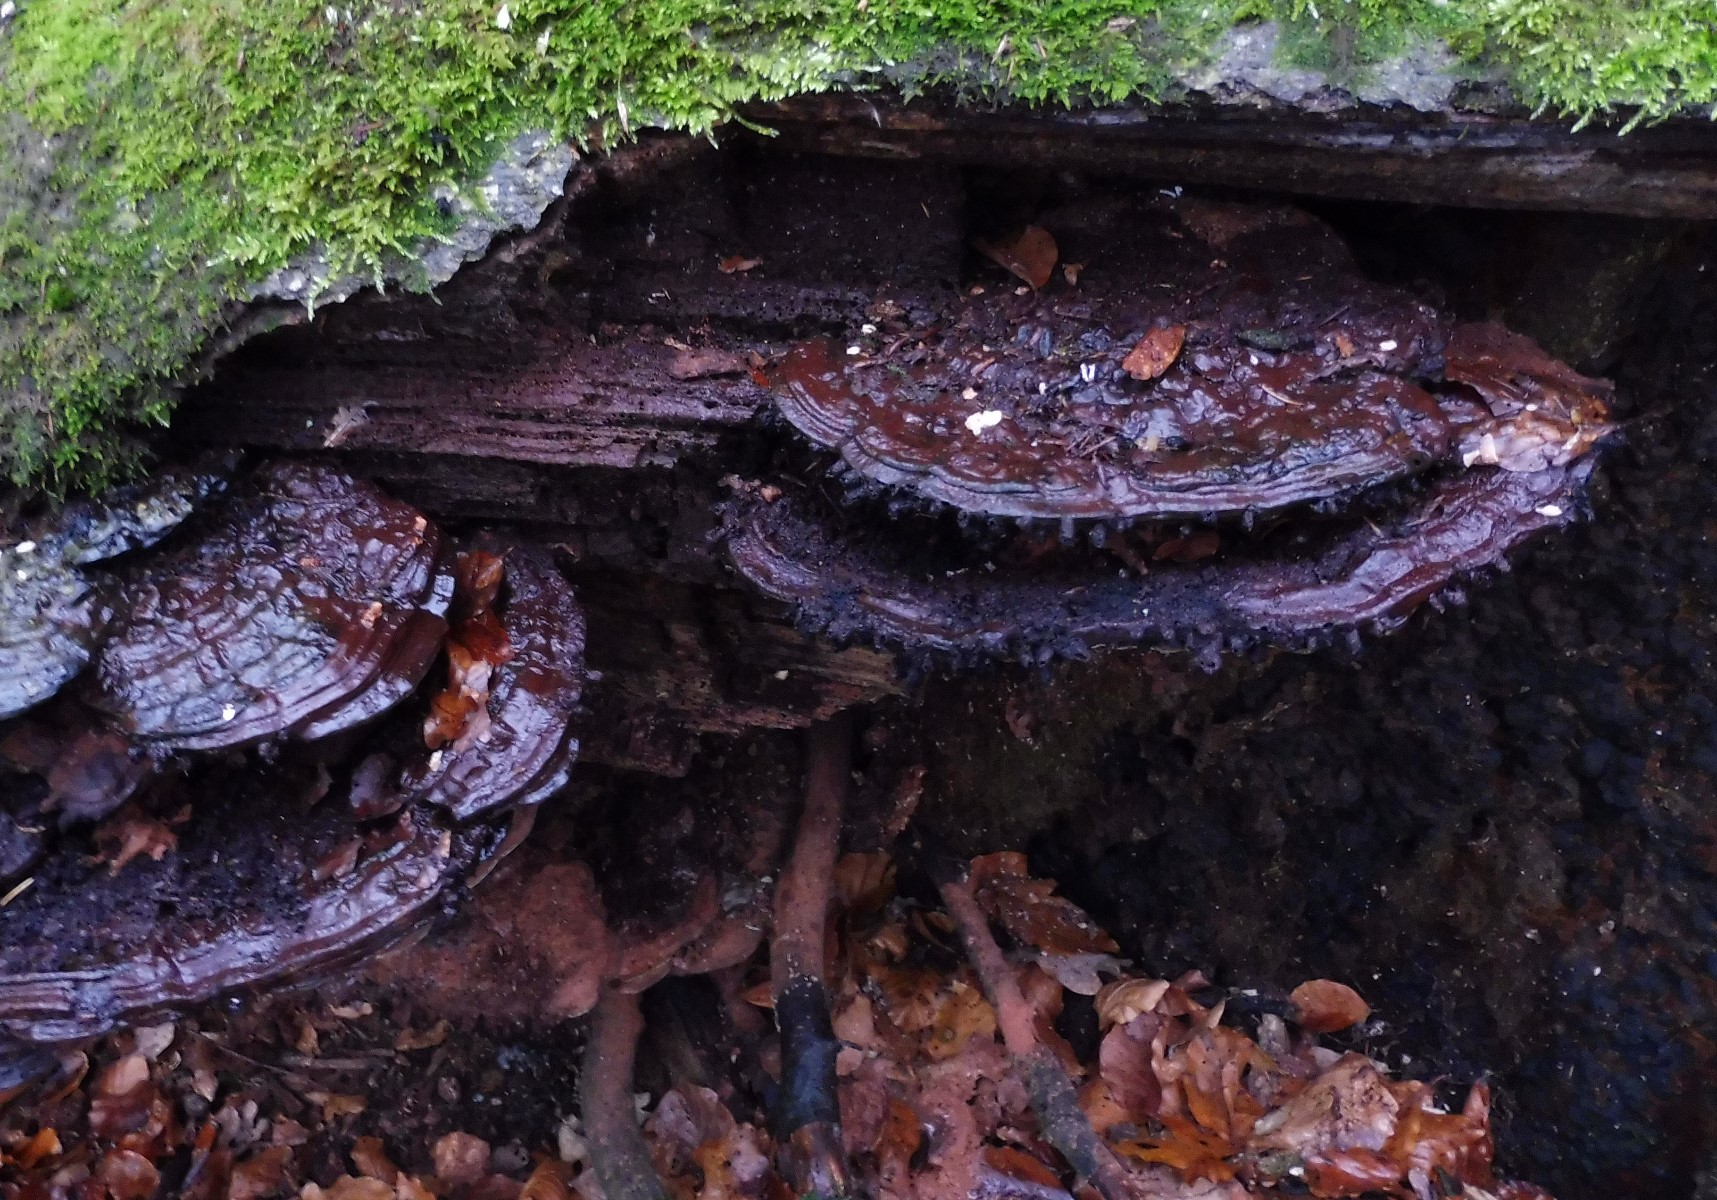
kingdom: Fungi
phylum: Basidiomycota
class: Agaricomycetes
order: Polyporales
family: Polyporaceae
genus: Ganoderma
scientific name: Ganoderma applanatum
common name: flad lakporesvamp
